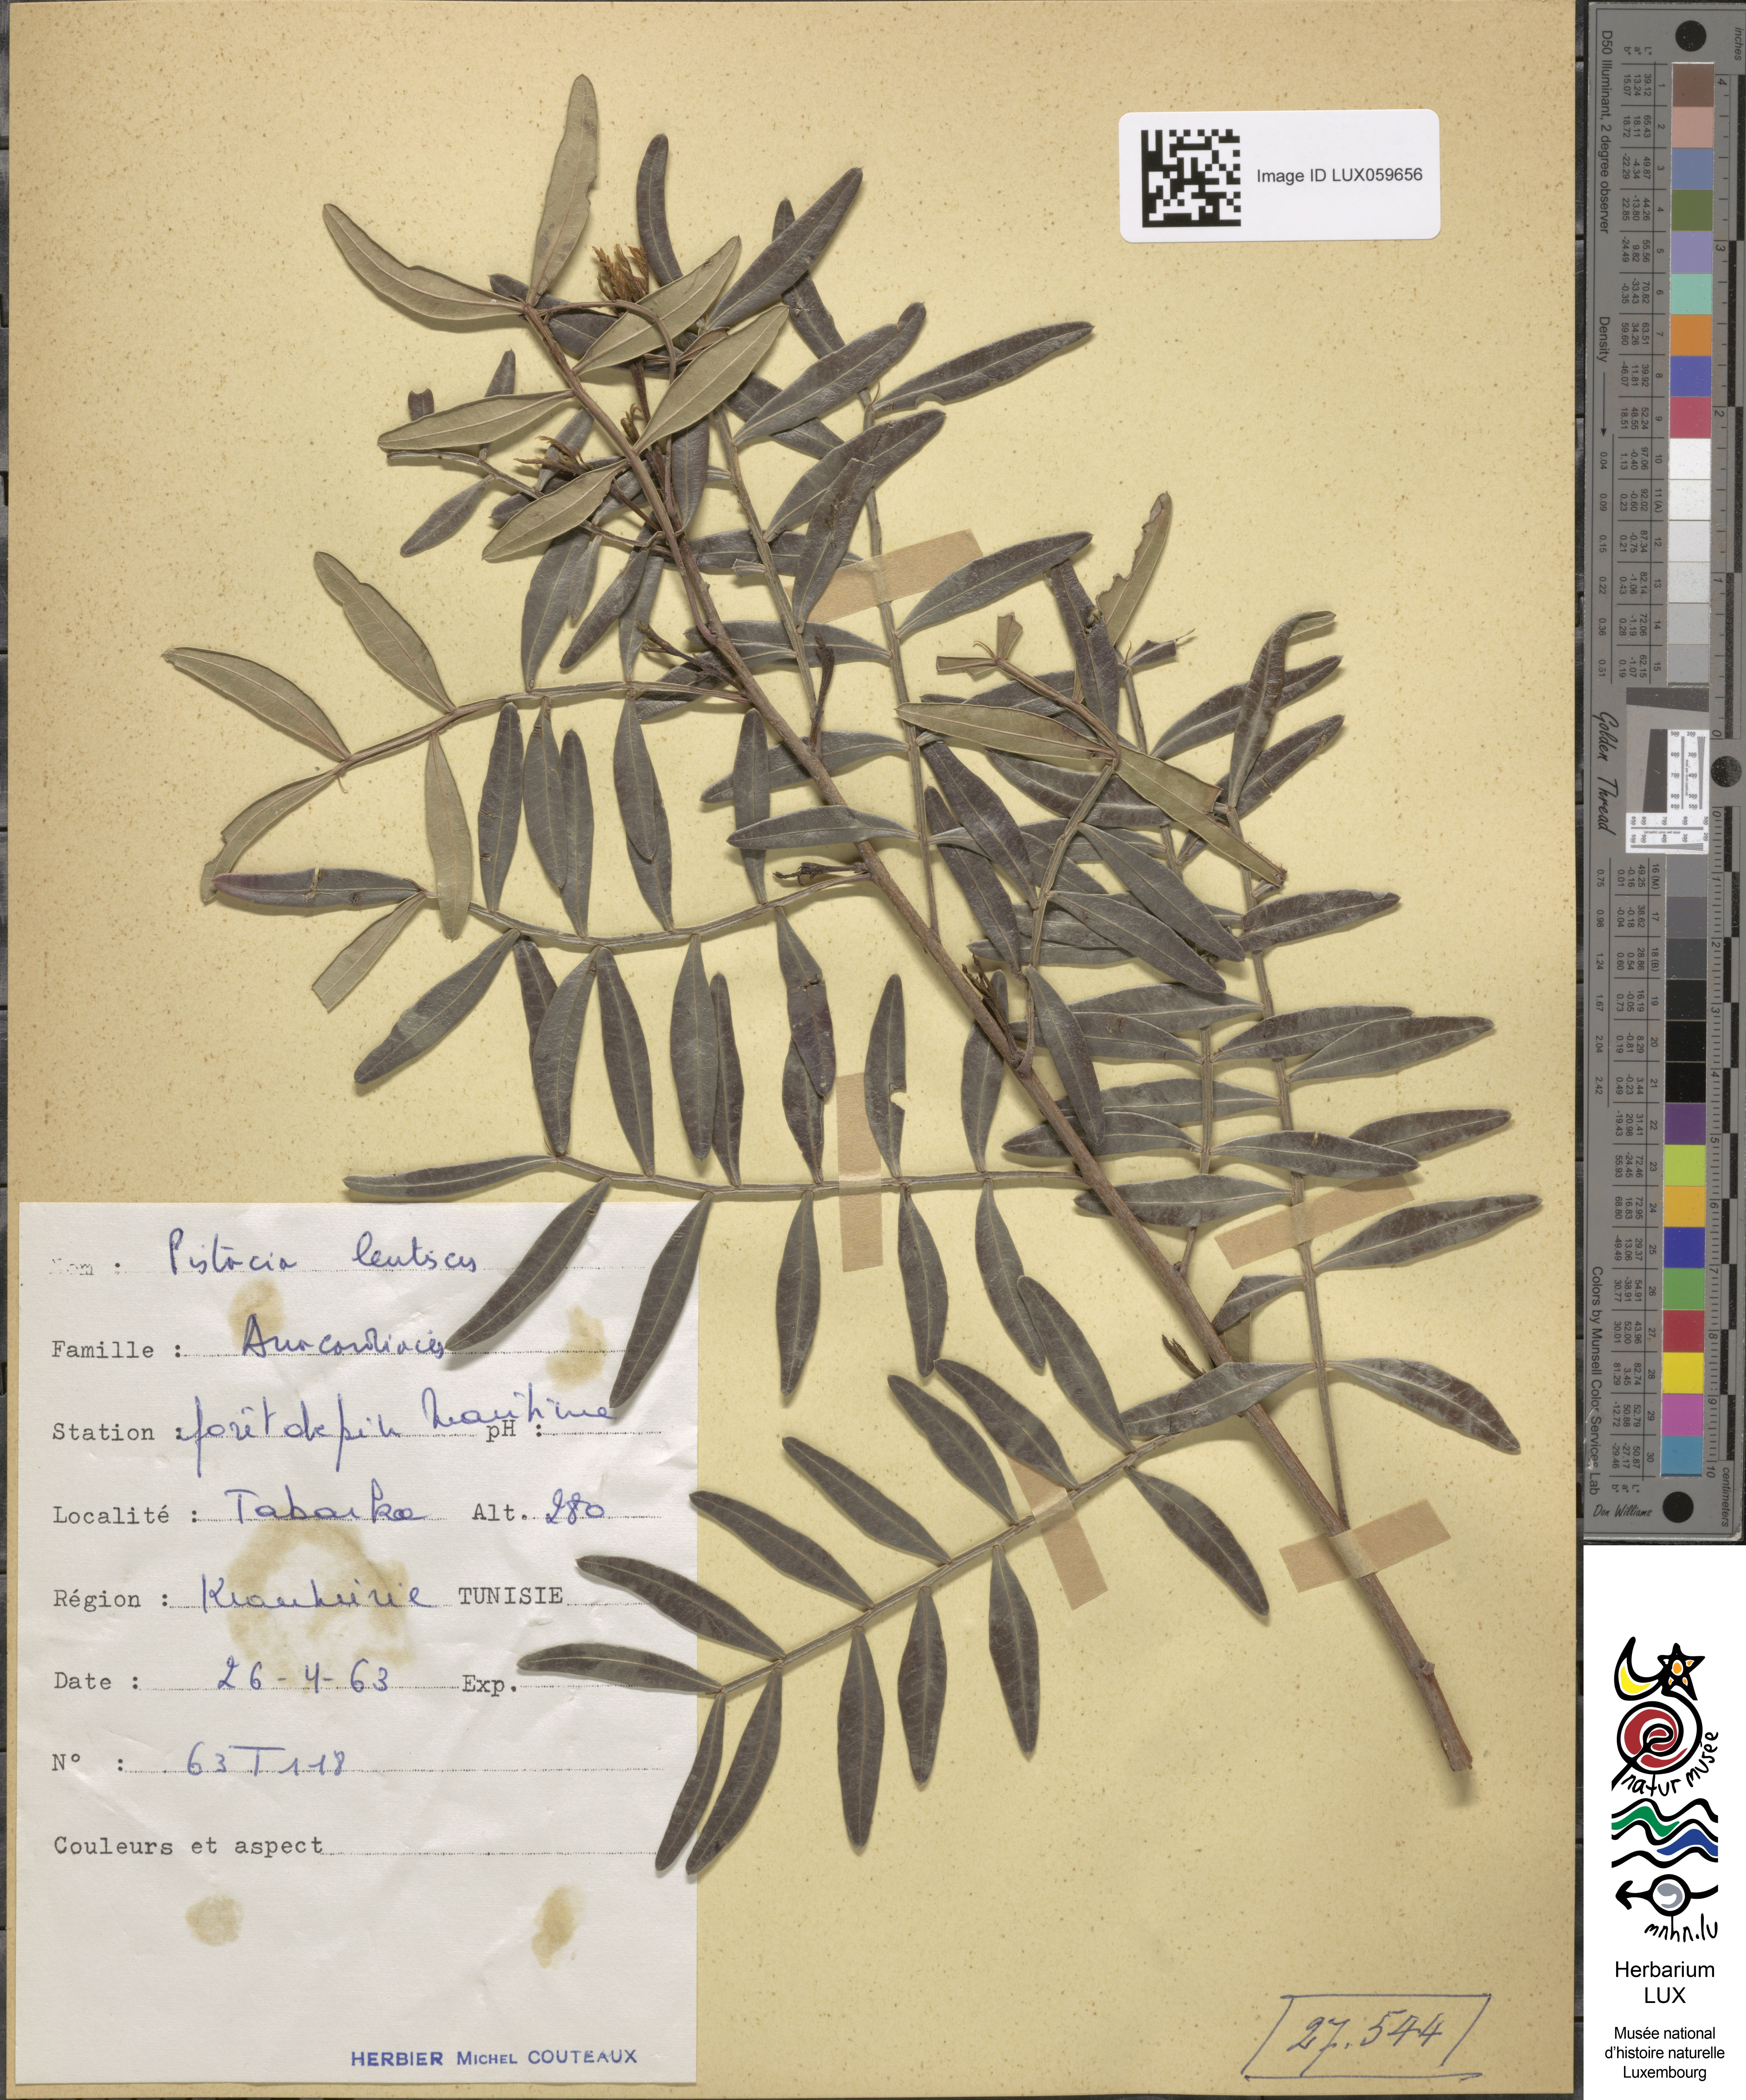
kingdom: Plantae
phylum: Tracheophyta
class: Magnoliopsida
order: Sapindales
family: Anacardiaceae
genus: Pistacia
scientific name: Pistacia lentiscus
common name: Lentisk
